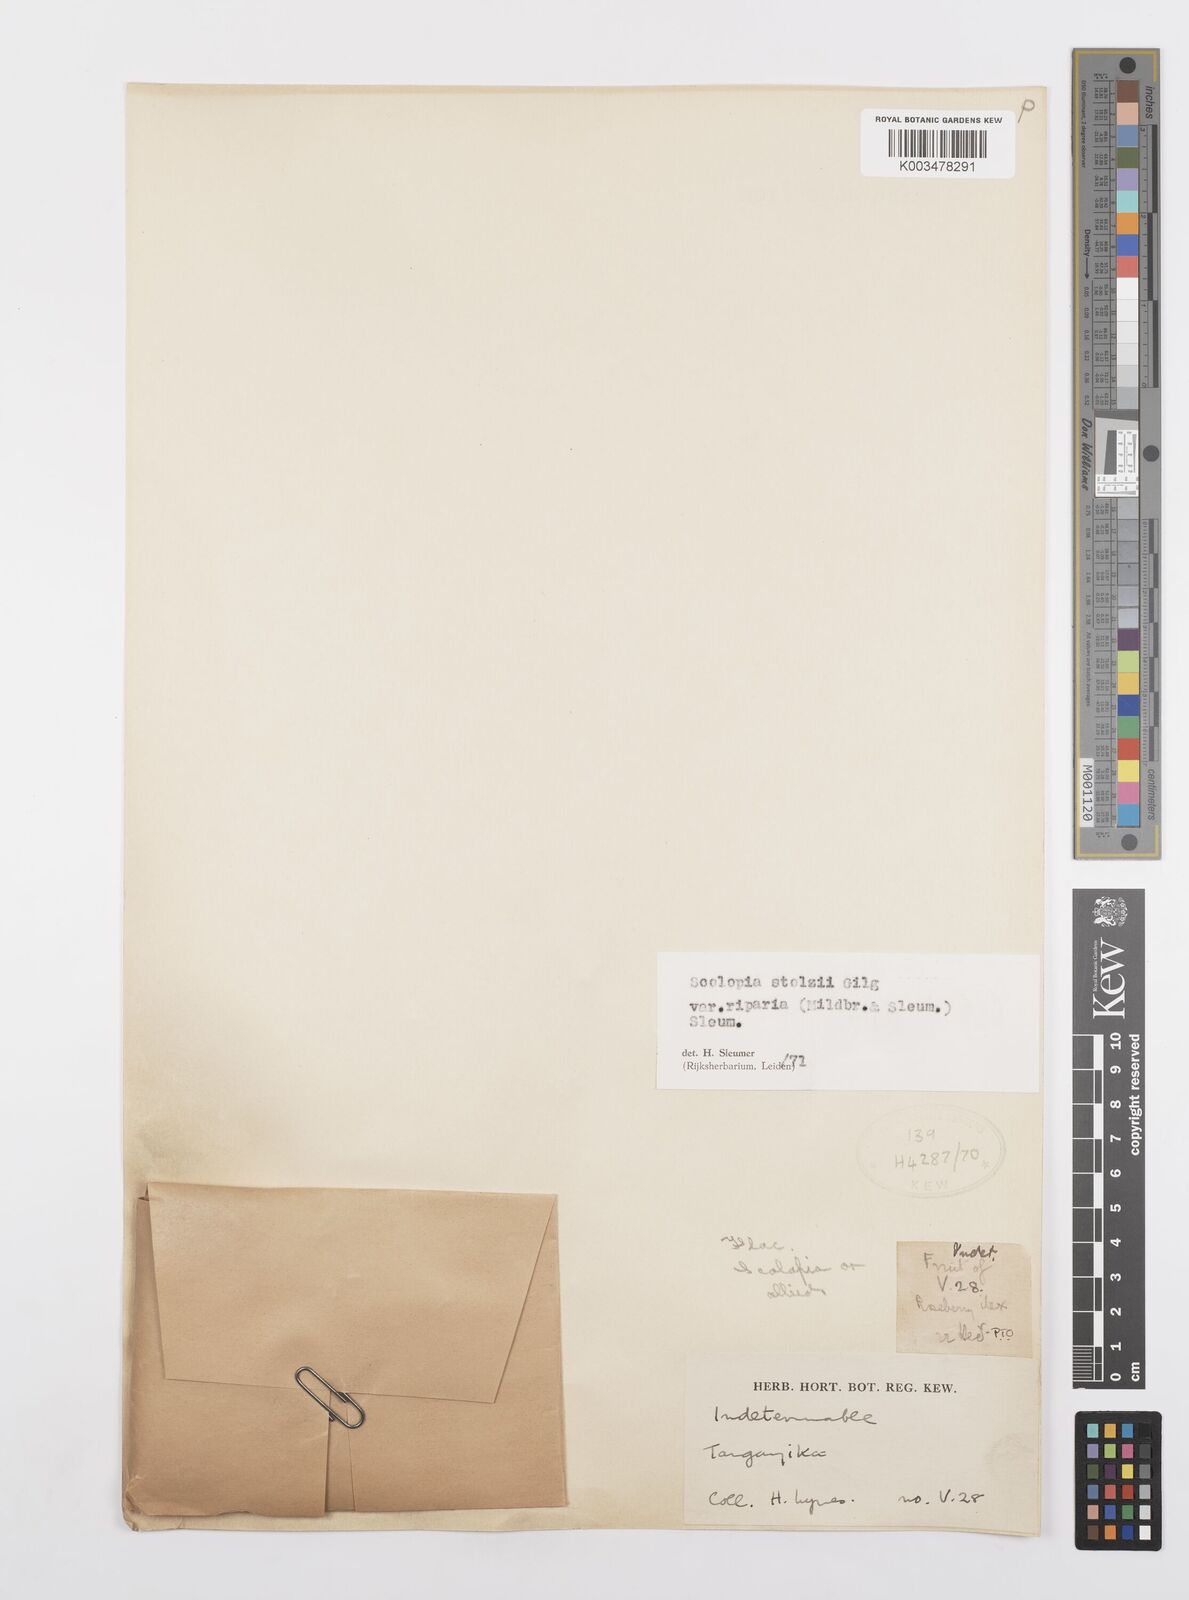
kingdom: Plantae
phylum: Tracheophyta
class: Magnoliopsida
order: Malpighiales
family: Salicaceae
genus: Scolopia
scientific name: Scolopia stolzii
